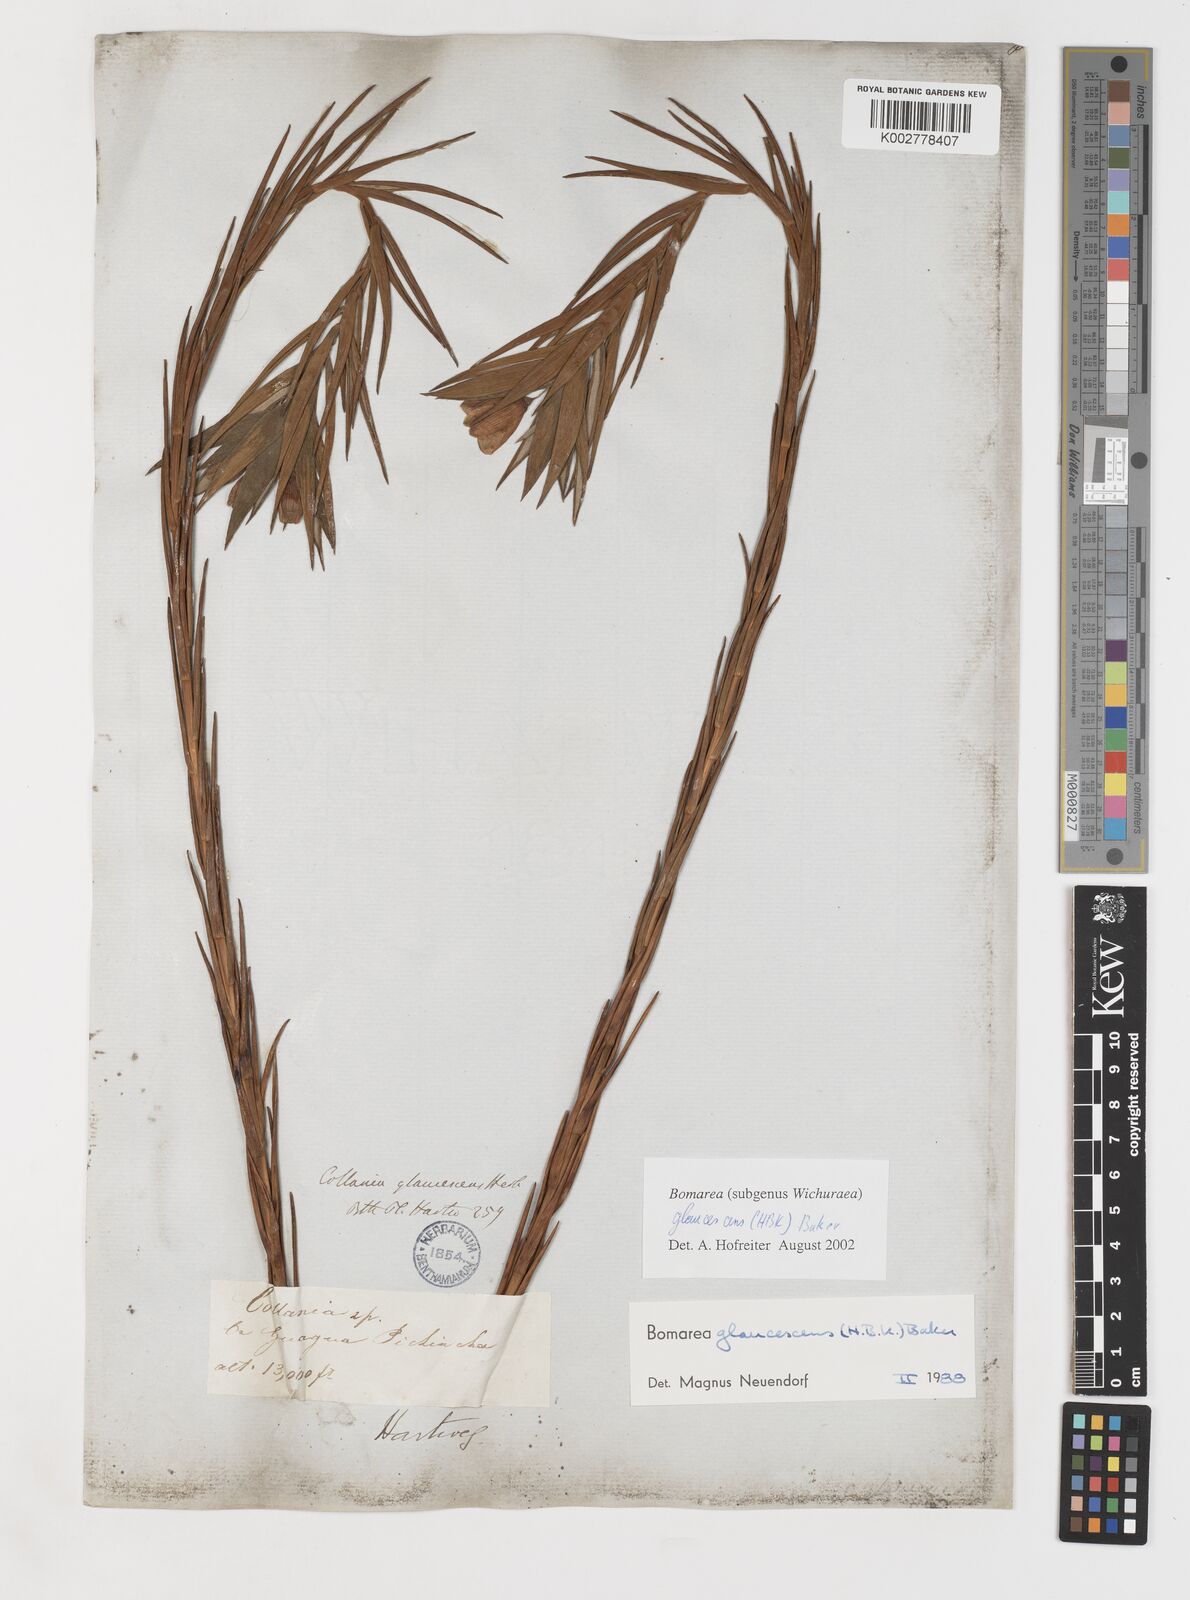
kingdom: Plantae
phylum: Tracheophyta
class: Liliopsida
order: Liliales
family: Alstroemeriaceae
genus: Bomarea
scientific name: Bomarea glaucescens
